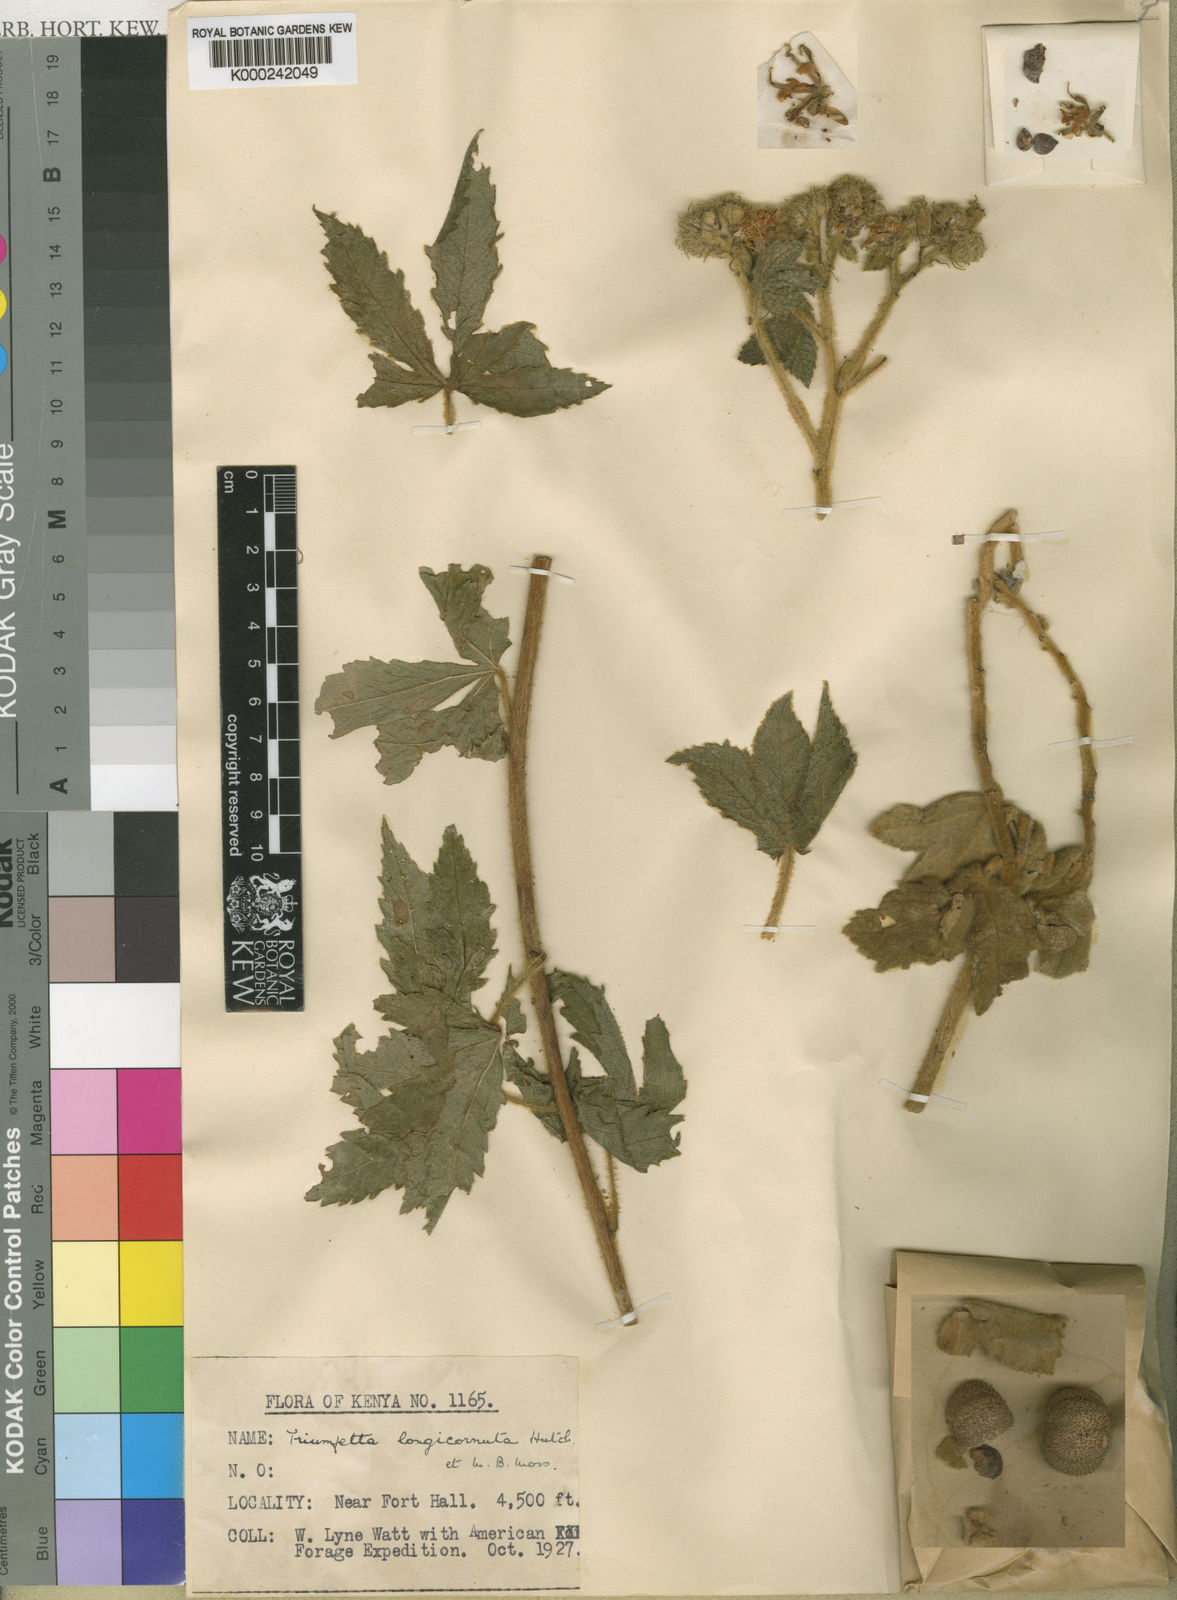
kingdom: Plantae
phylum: Tracheophyta
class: Magnoliopsida
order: Malvales
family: Malvaceae
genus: Triumfetta
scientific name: Triumfetta longicornuta
